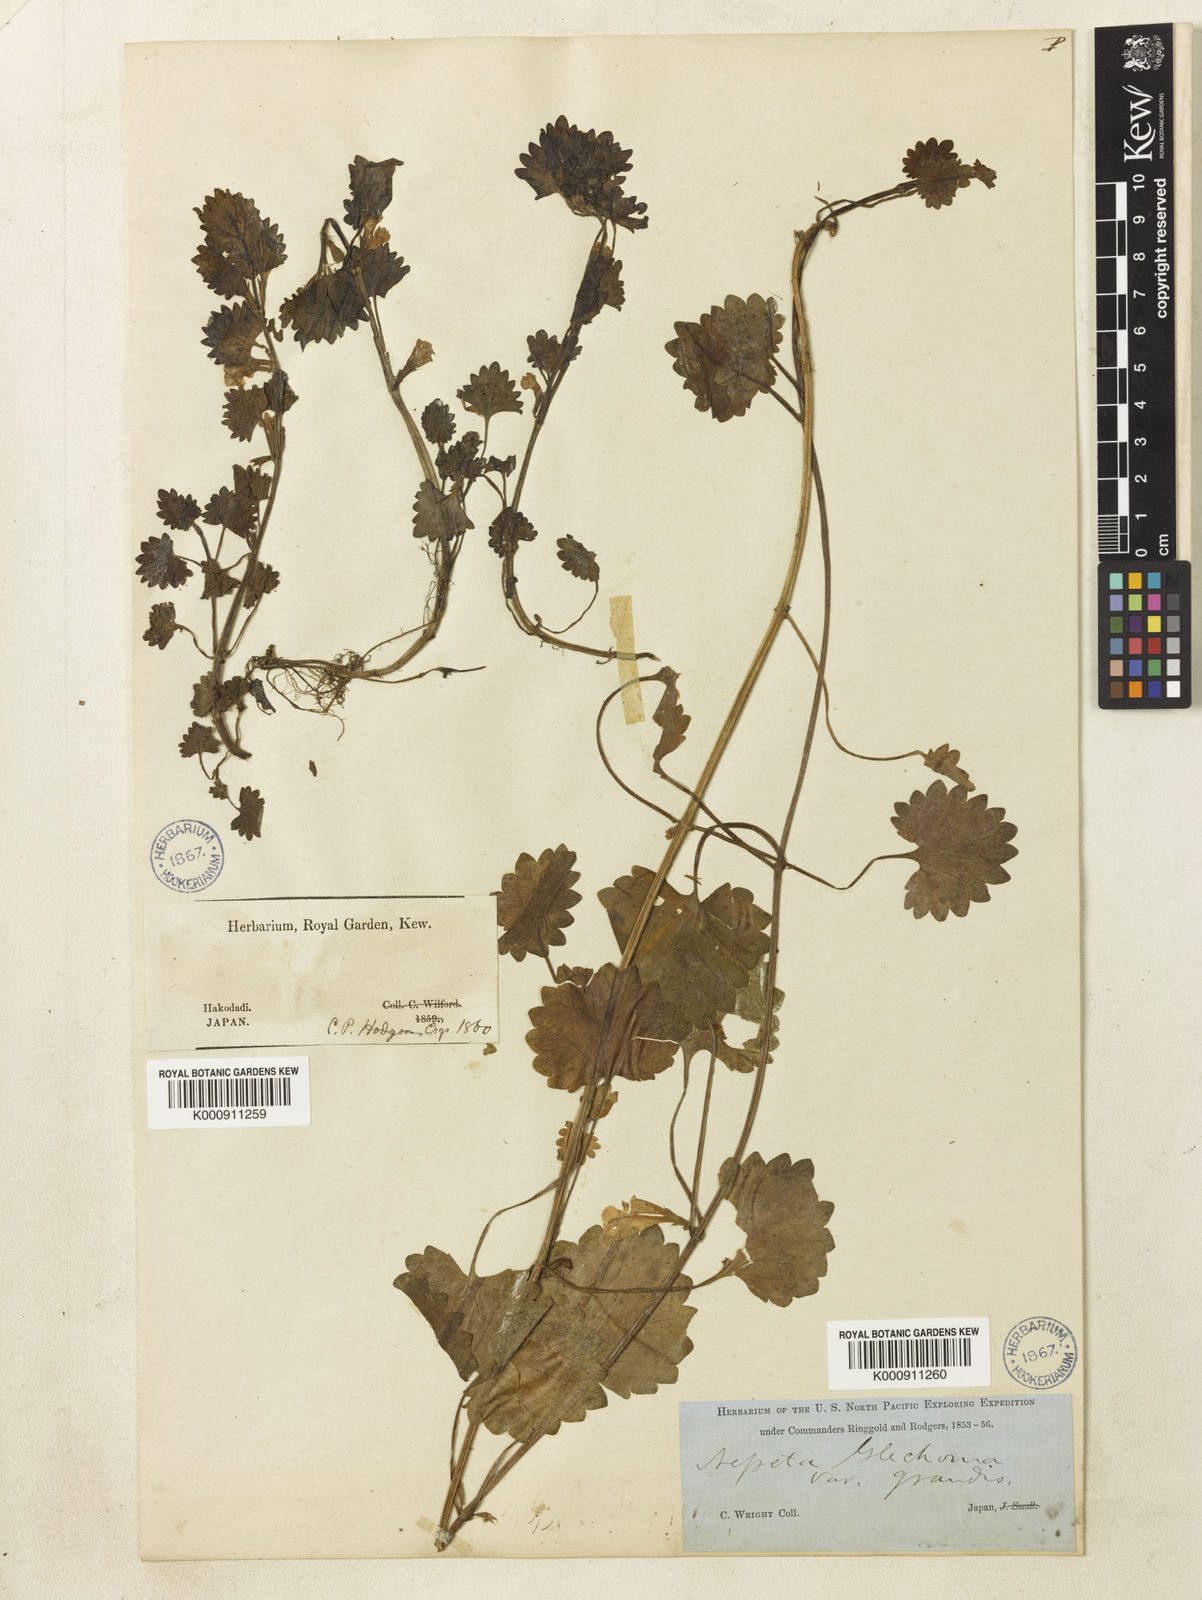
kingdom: Plantae
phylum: Tracheophyta
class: Magnoliopsida
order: Lamiales
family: Lamiaceae
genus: Glechoma
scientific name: Glechoma longituba
